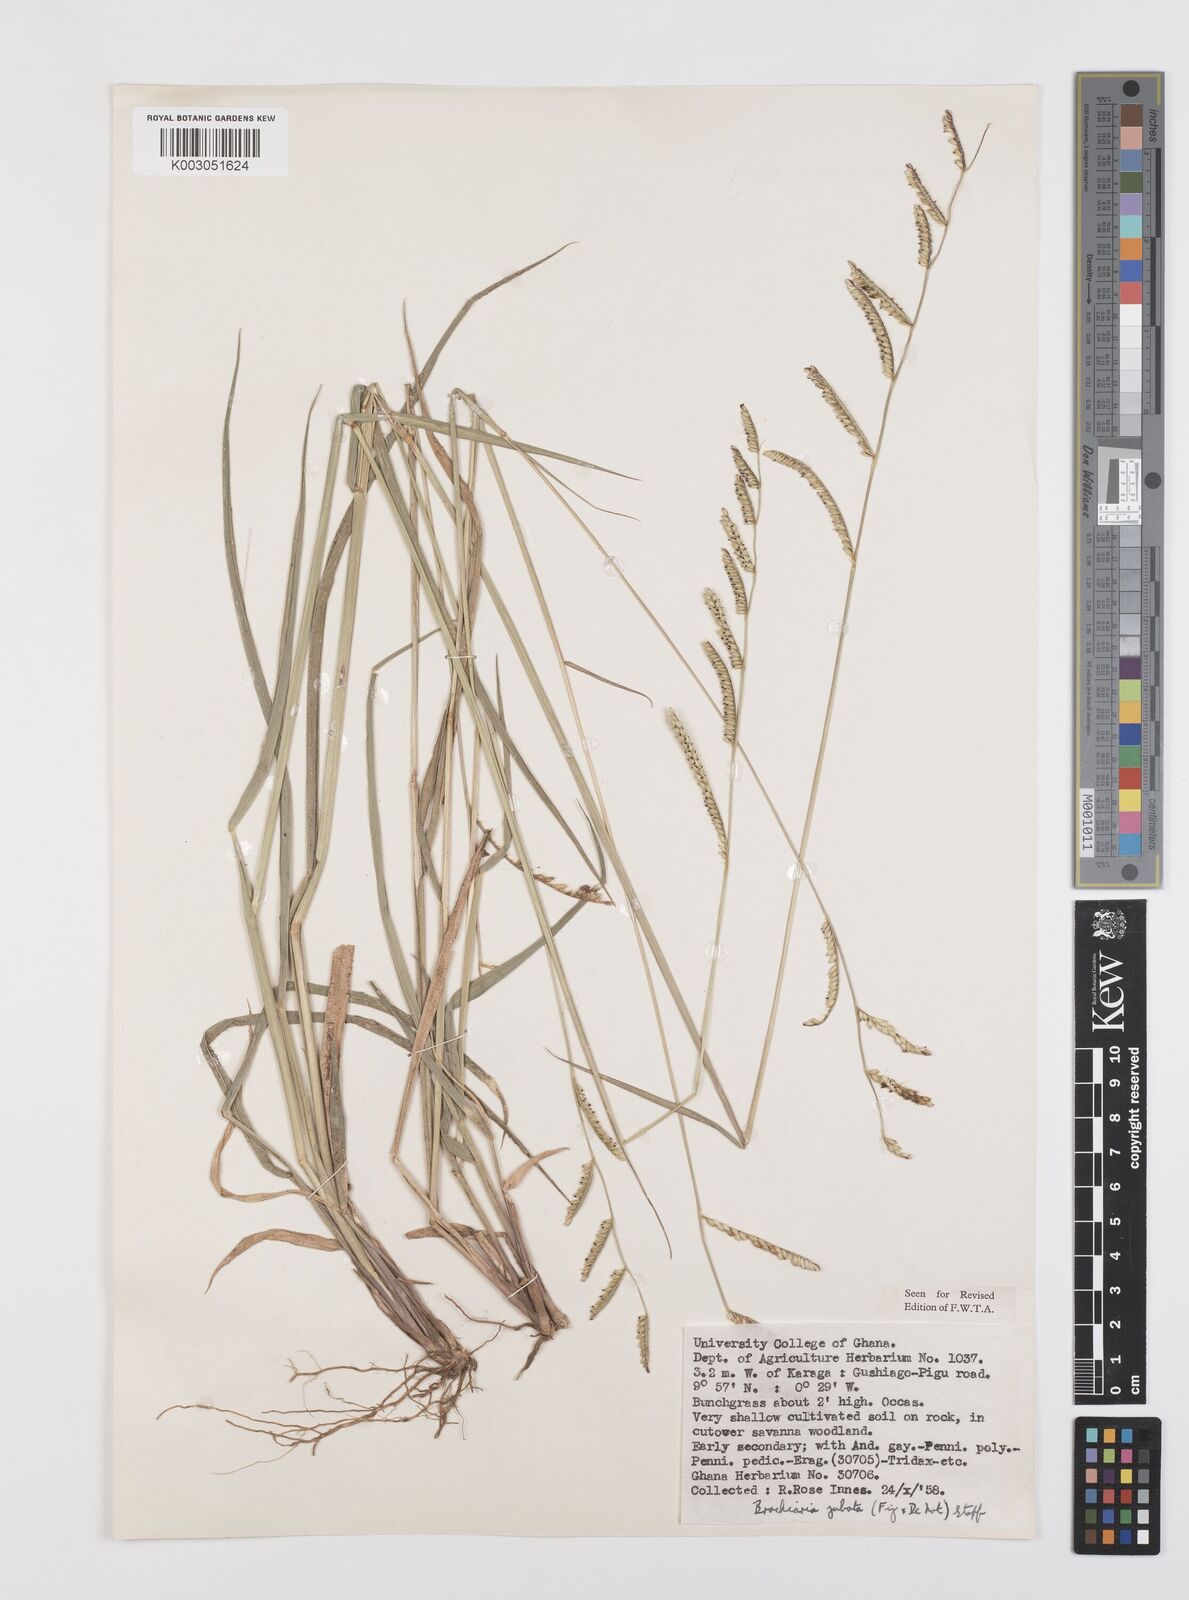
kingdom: Plantae
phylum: Tracheophyta
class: Liliopsida
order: Poales
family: Poaceae
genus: Urochloa
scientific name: Urochloa jubata
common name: Buffalograss
